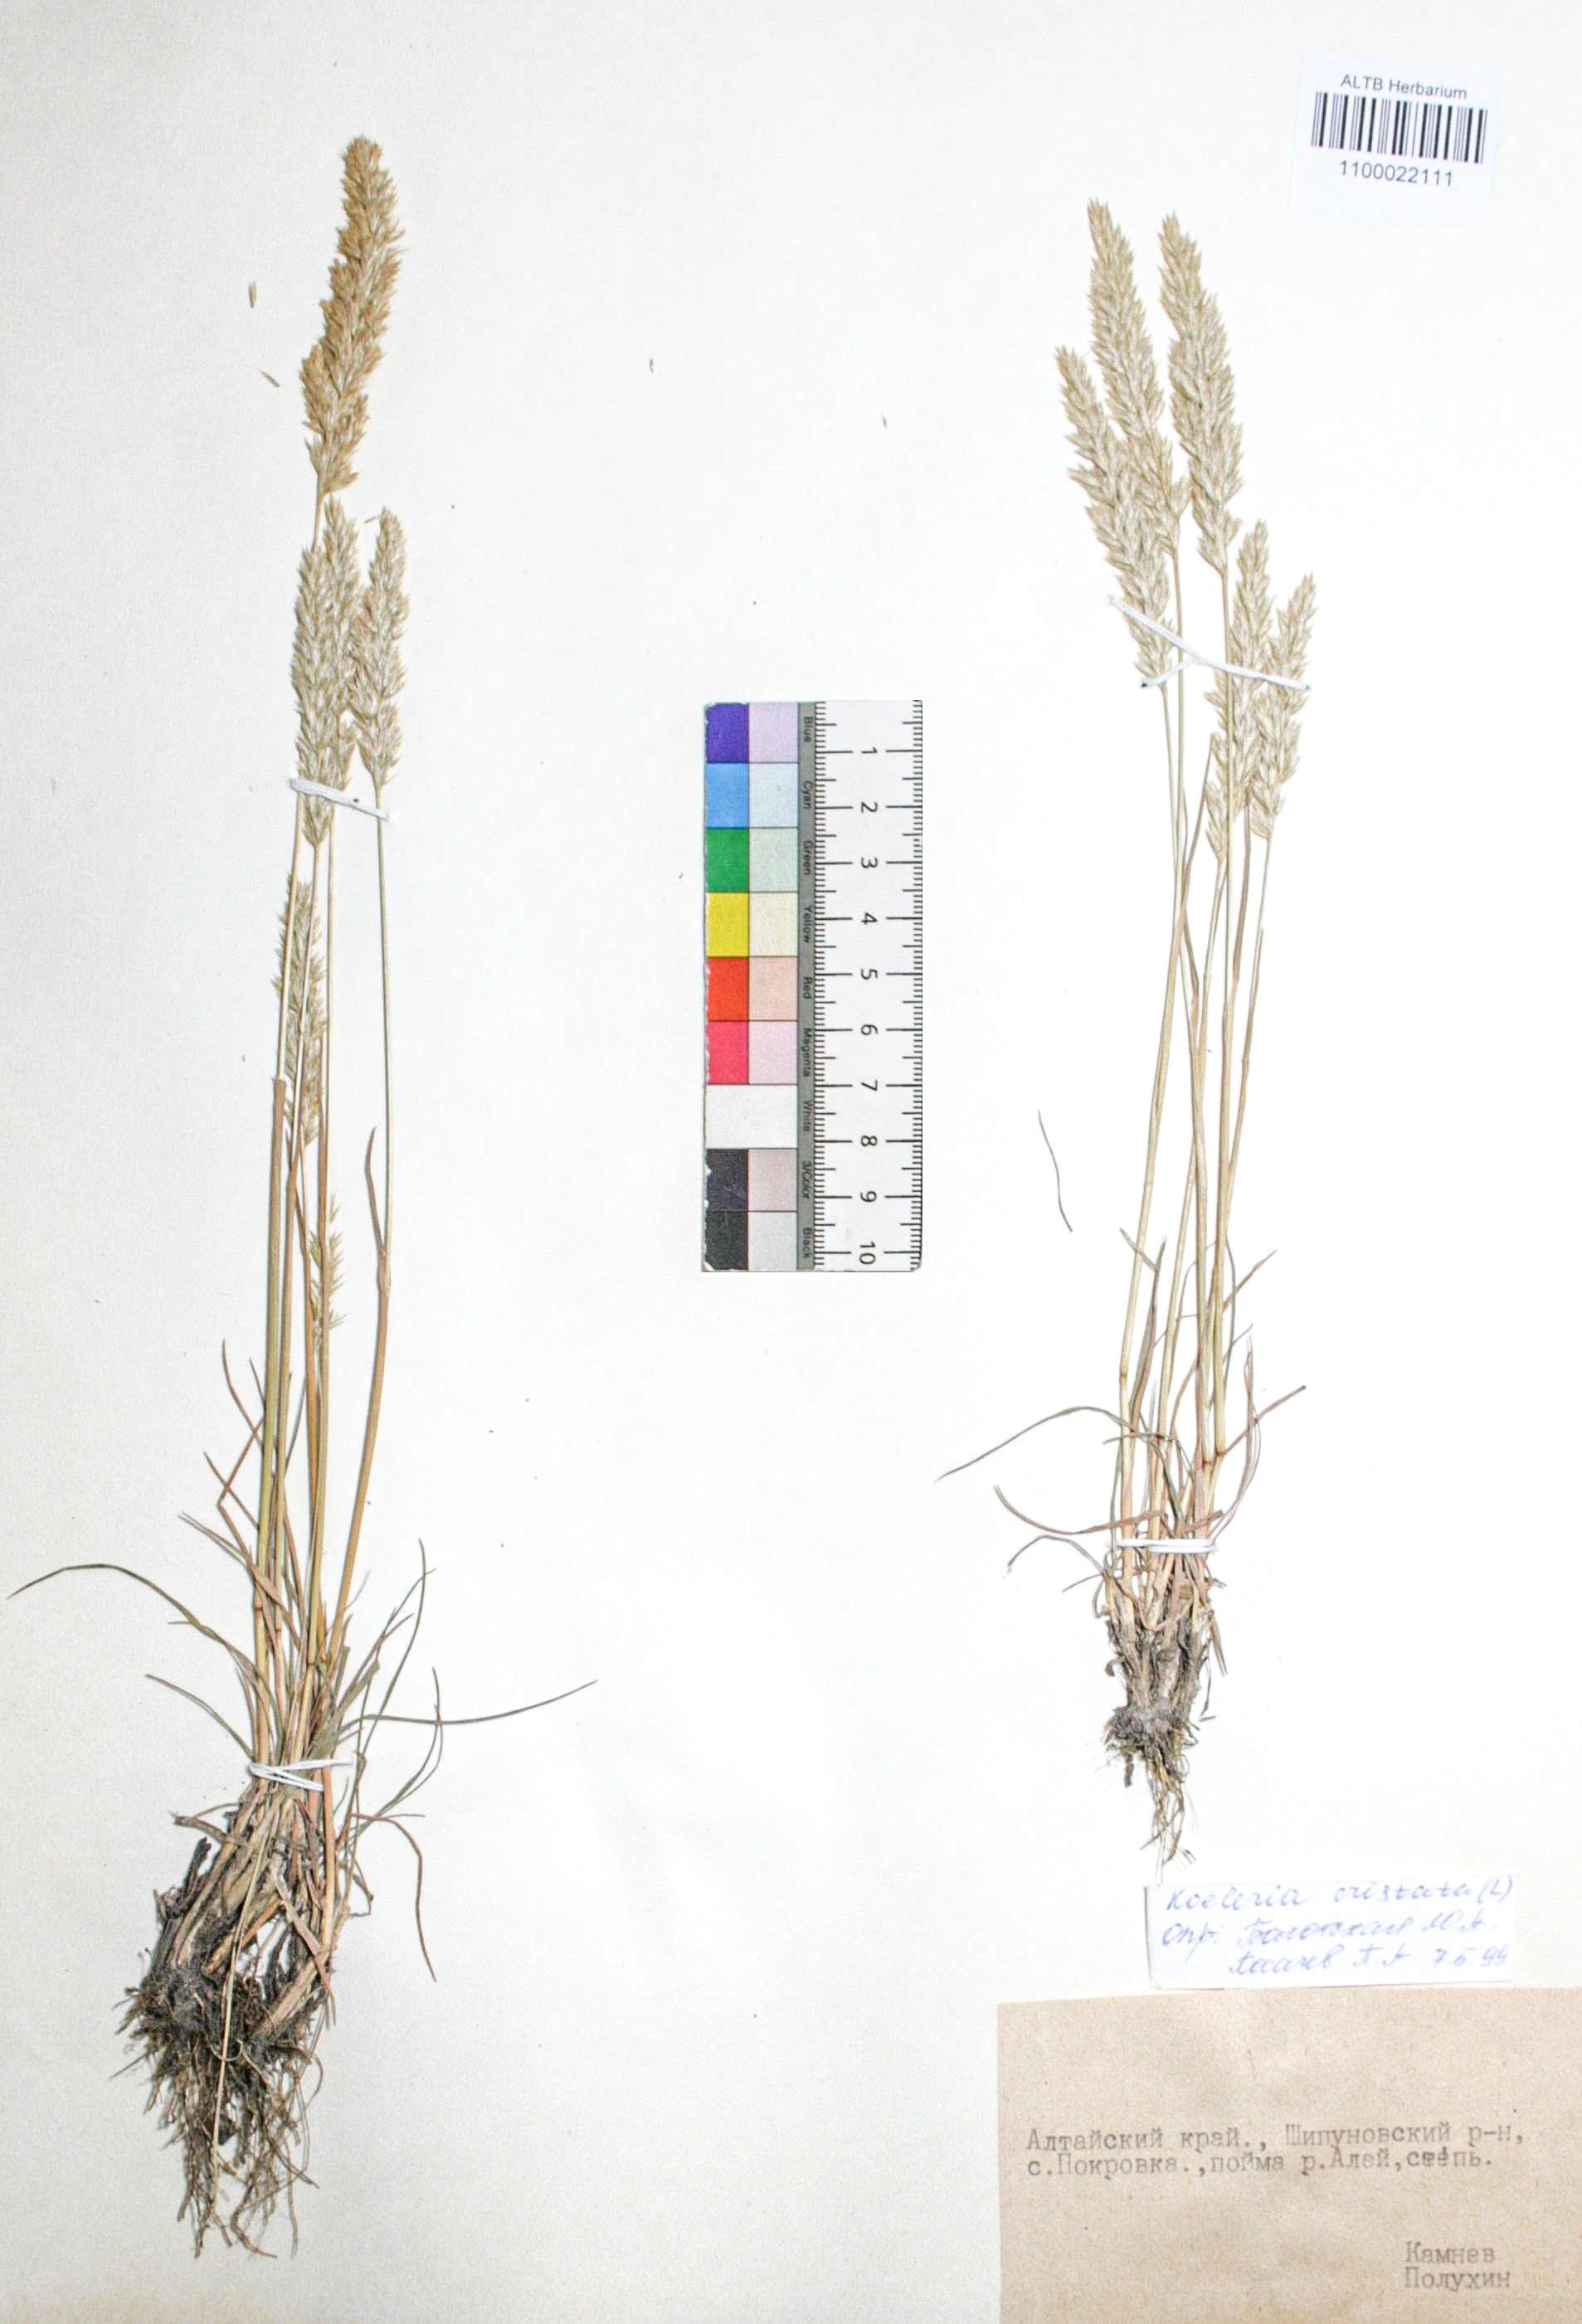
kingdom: Plantae
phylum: Tracheophyta
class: Liliopsida
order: Poales
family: Poaceae
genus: Koeleria
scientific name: Koeleria pyramidata
